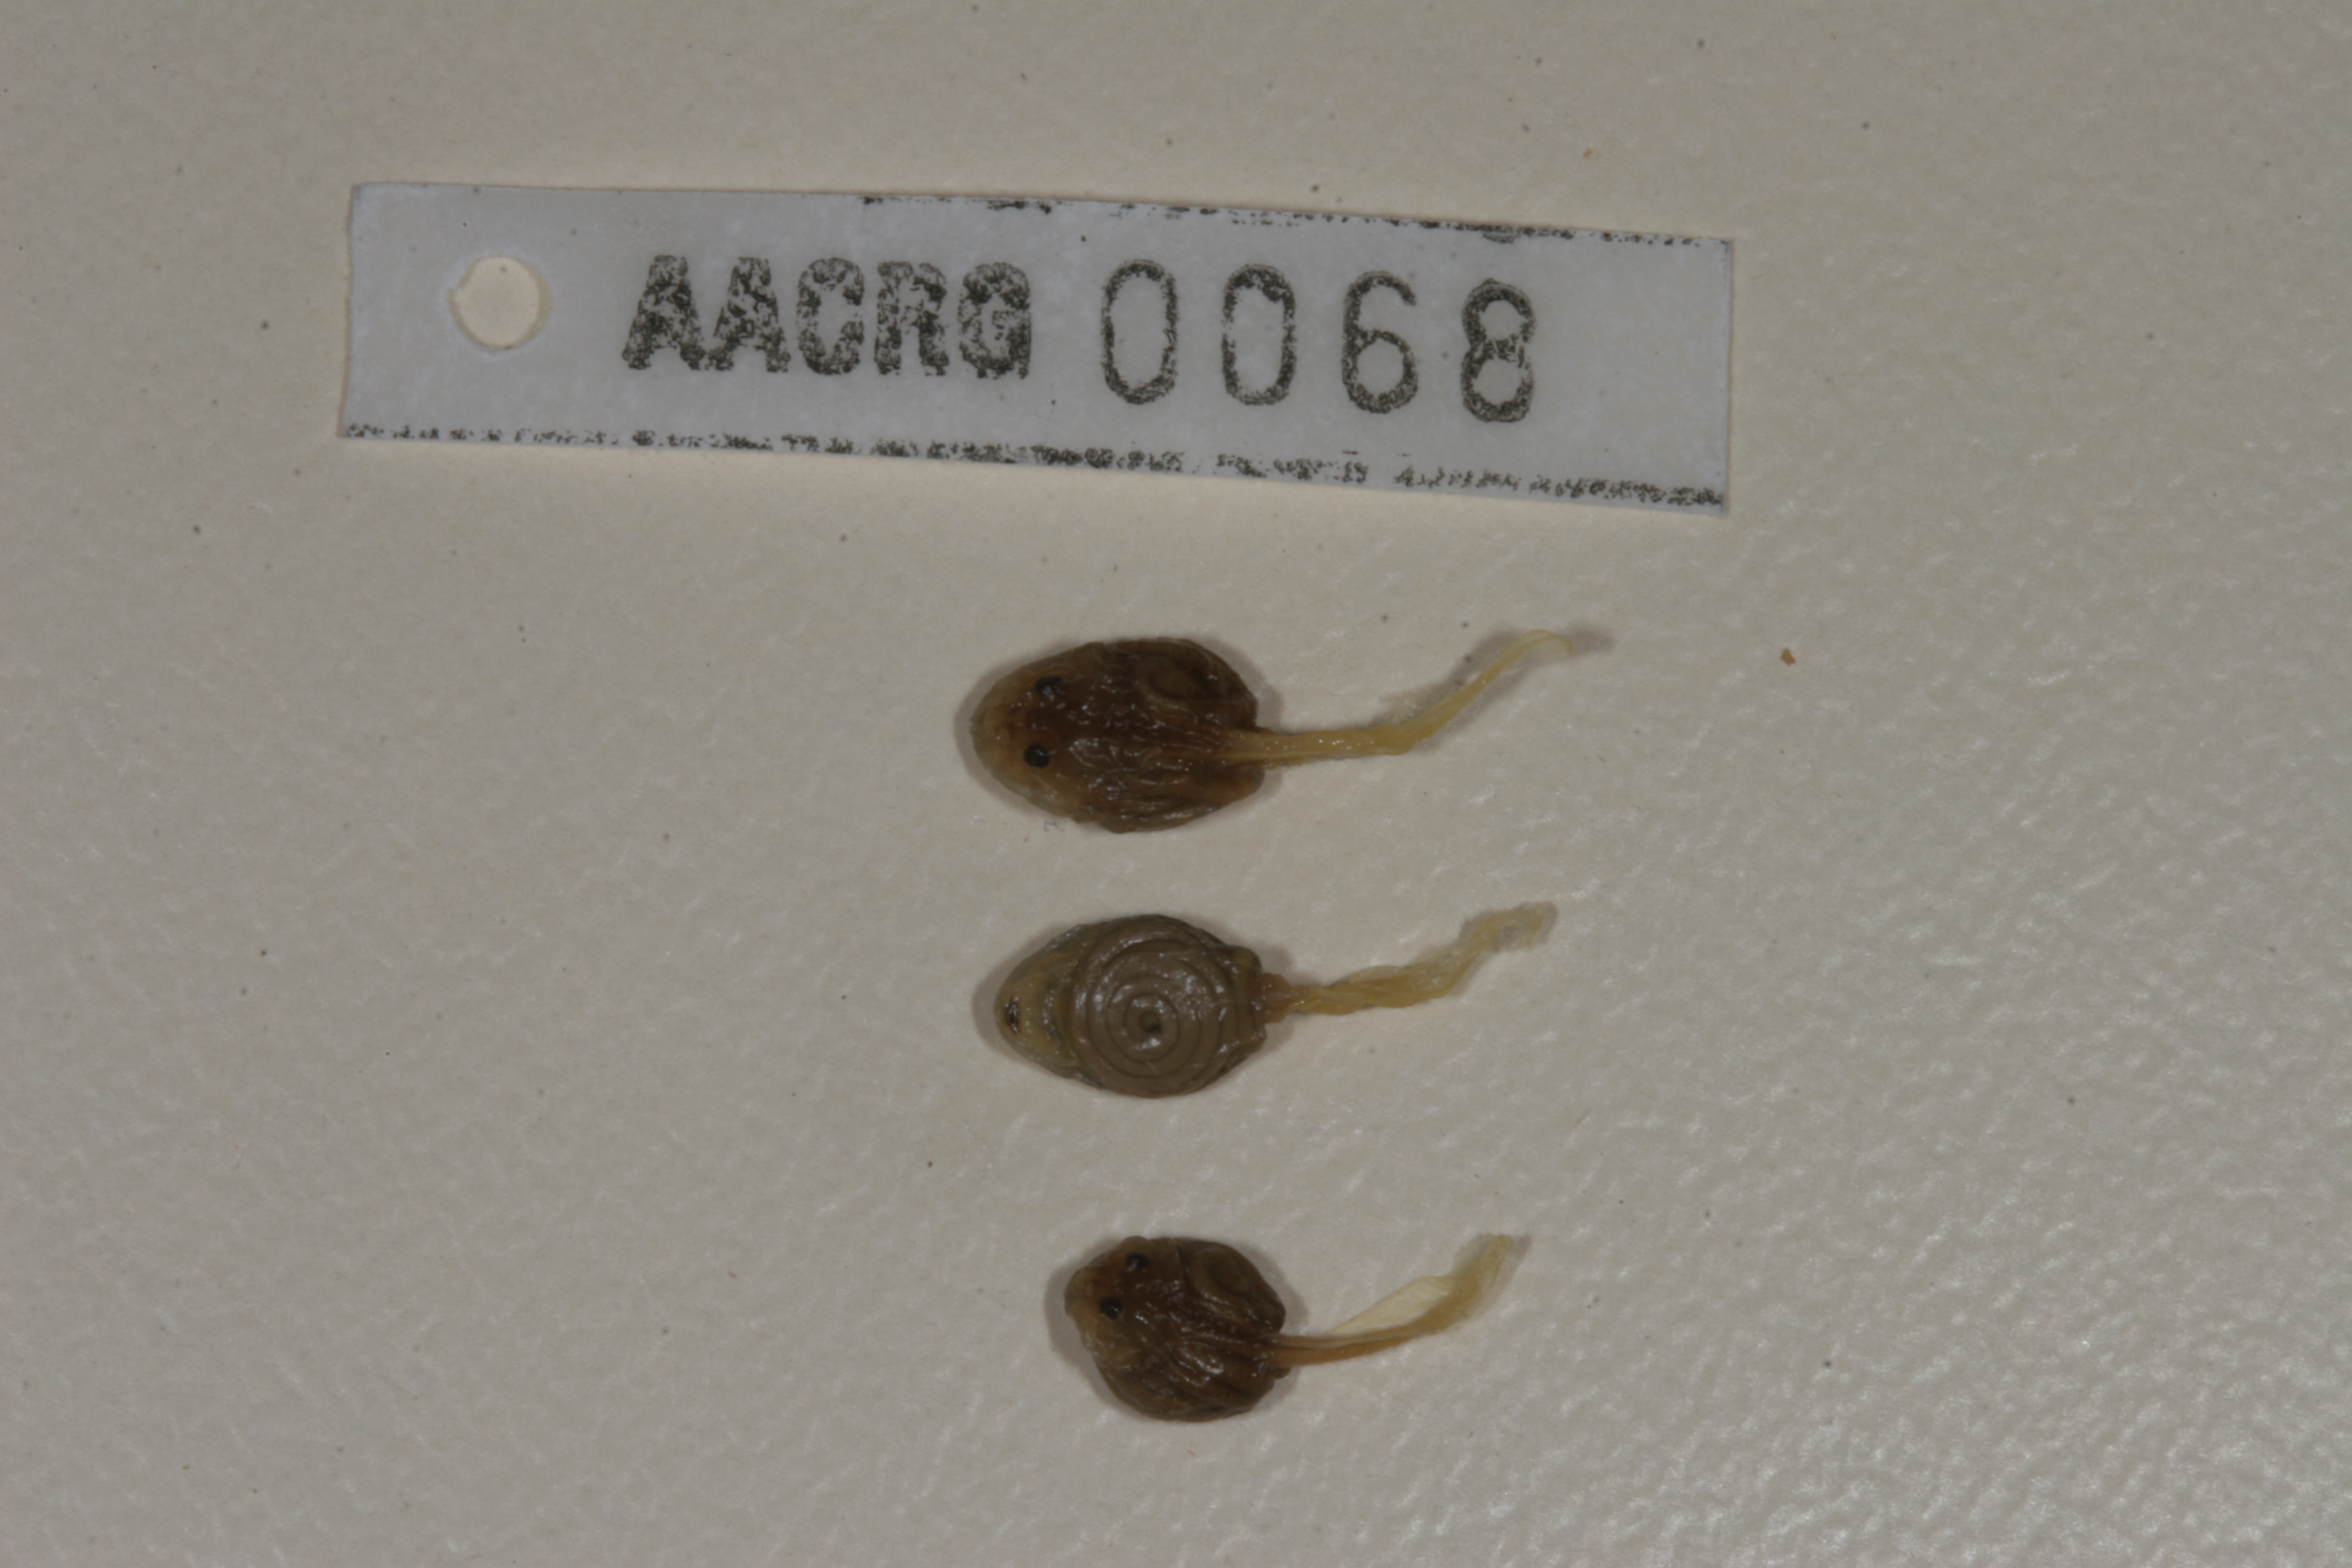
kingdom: Animalia
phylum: Chordata
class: Amphibia
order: Anura
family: Bufonidae
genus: Poyntonophrynus
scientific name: Poyntonophrynus fenoulheti
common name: Fenoulhet's toad
